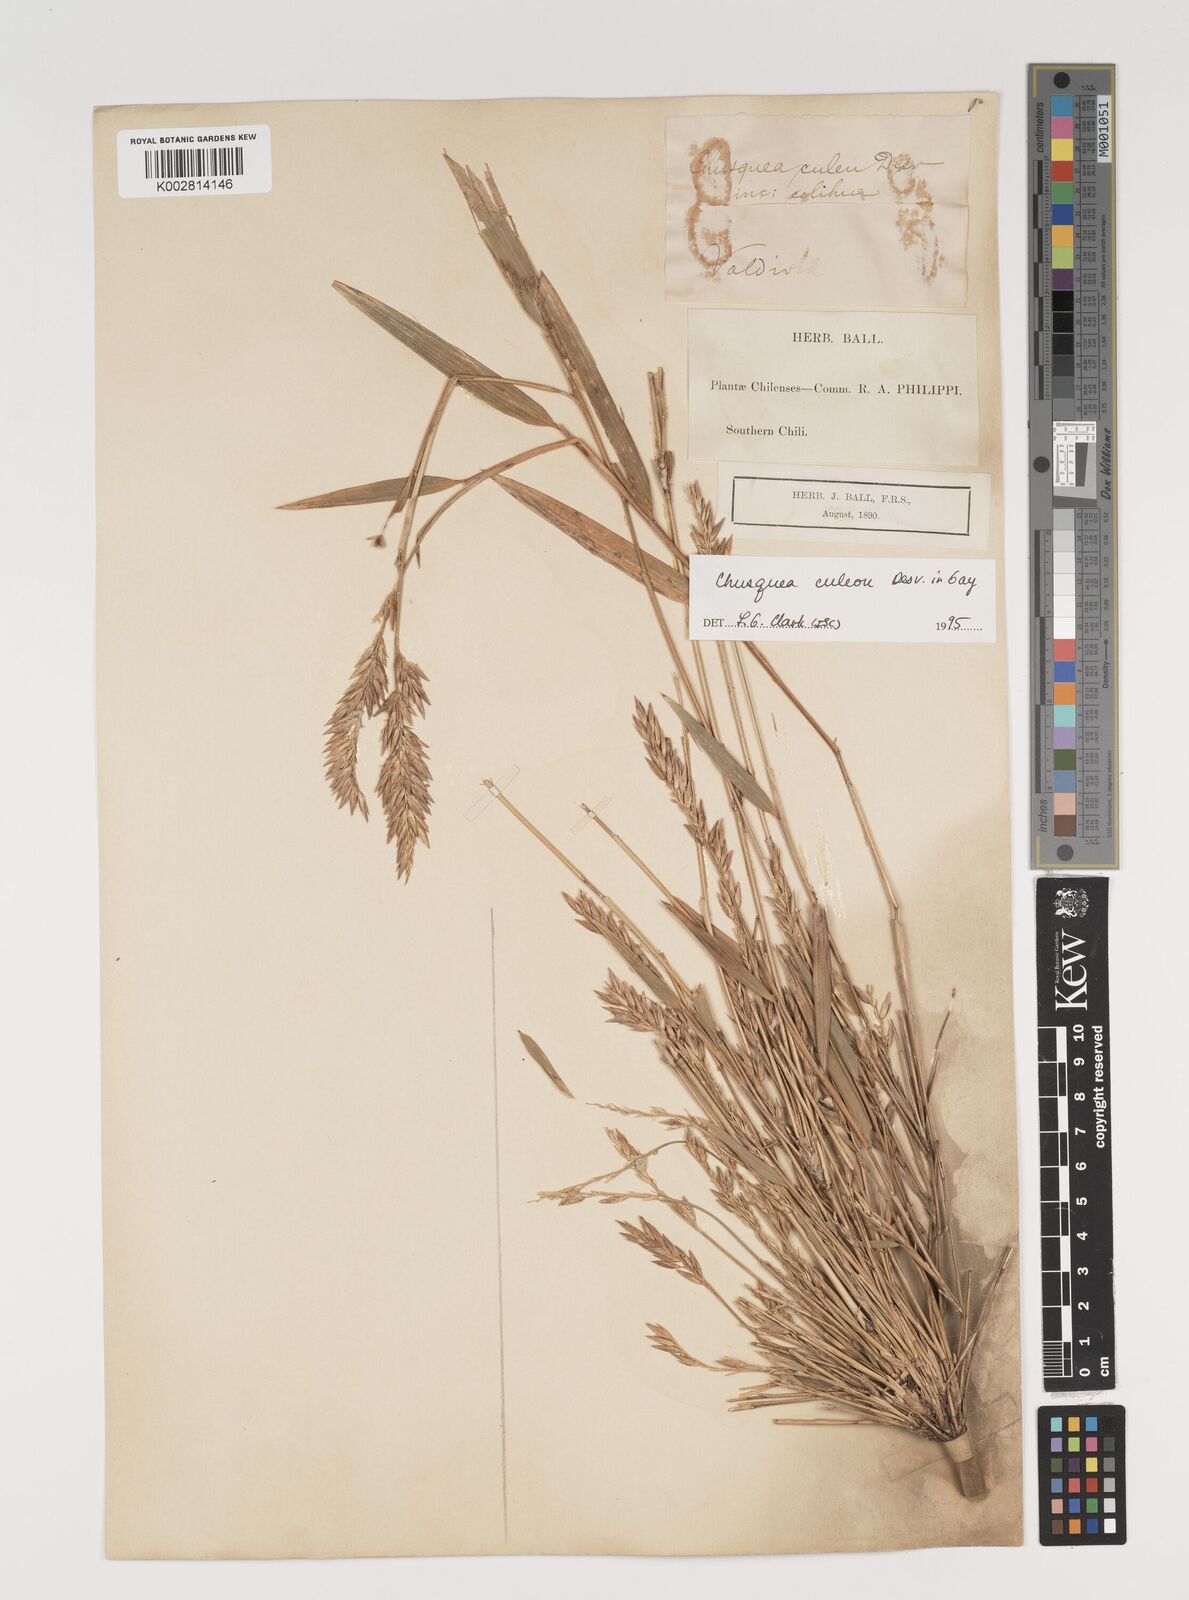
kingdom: Plantae
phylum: Tracheophyta
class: Liliopsida
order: Poales
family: Poaceae
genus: Chusquea
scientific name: Chusquea culeou
